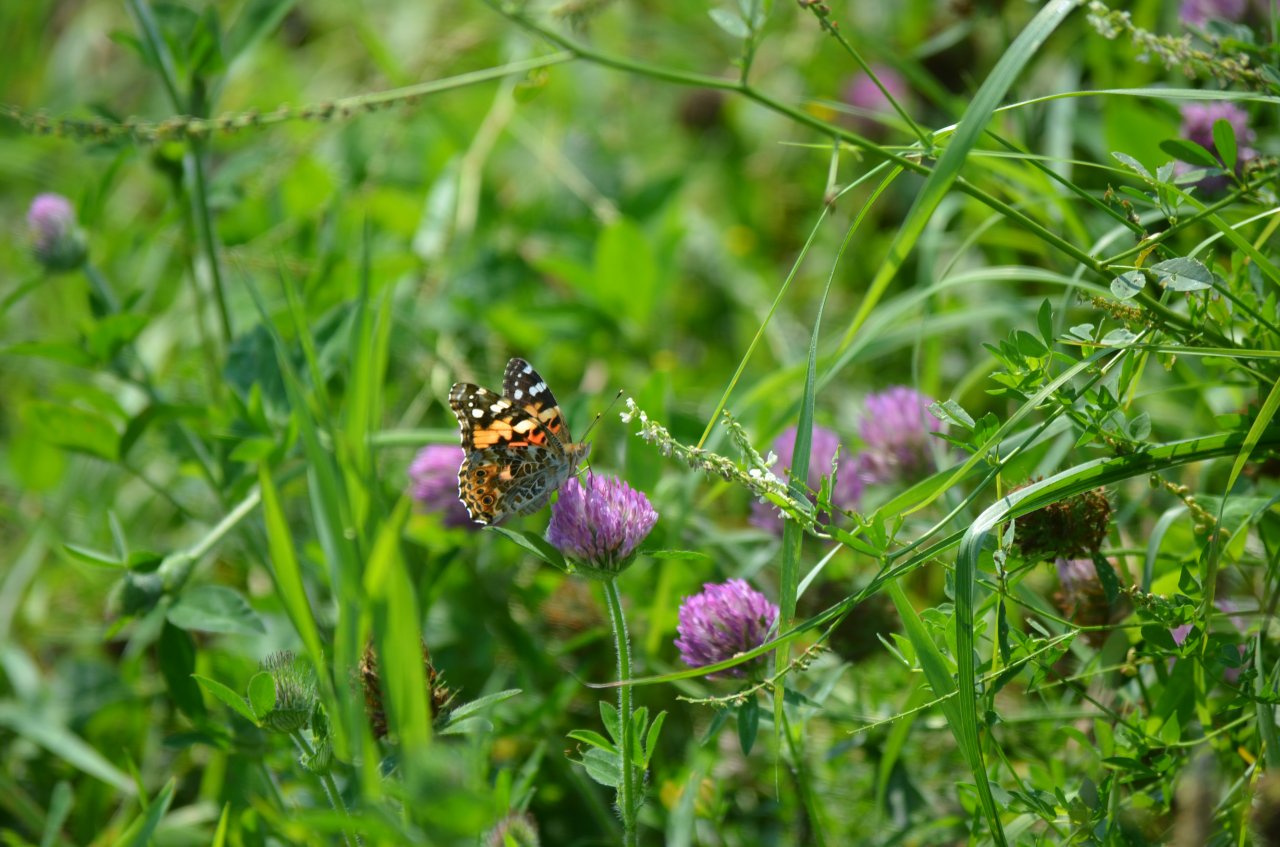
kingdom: Animalia
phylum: Arthropoda
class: Insecta
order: Lepidoptera
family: Nymphalidae
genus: Vanessa
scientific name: Vanessa cardui
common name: Painted Lady
